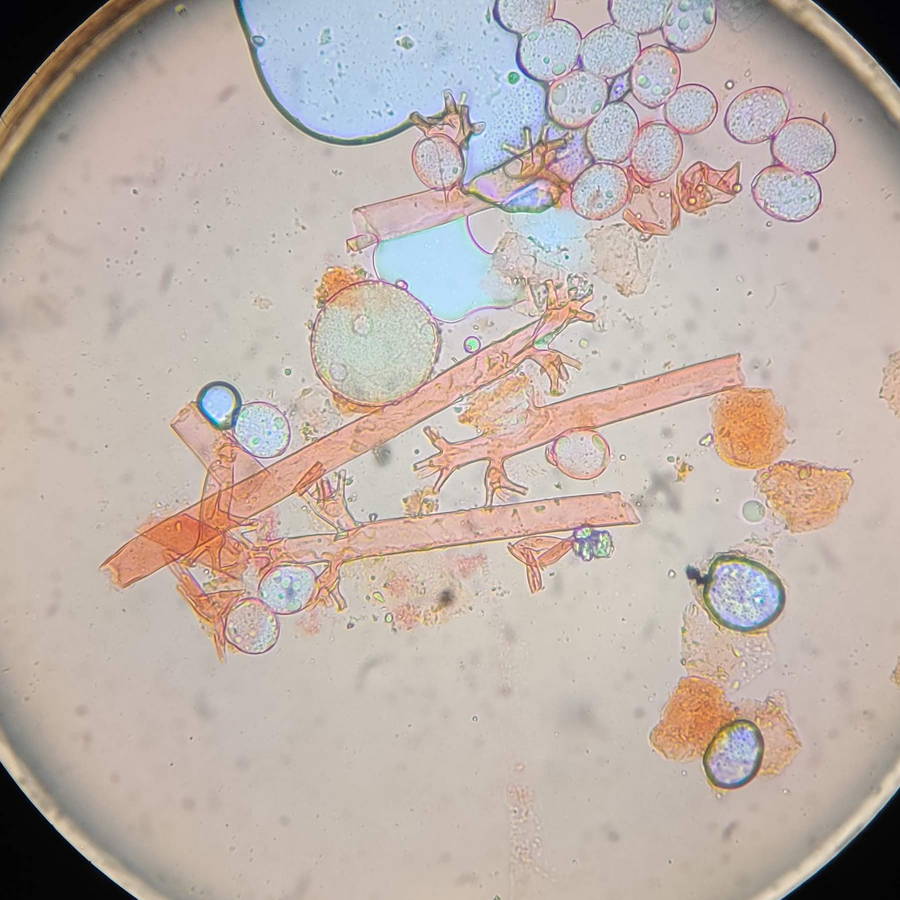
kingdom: Chromista
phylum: Oomycota
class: Peronosporea
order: Peronosporales
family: Peronosporaceae
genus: Plasmoverna
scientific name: Plasmoverna pygmaea
